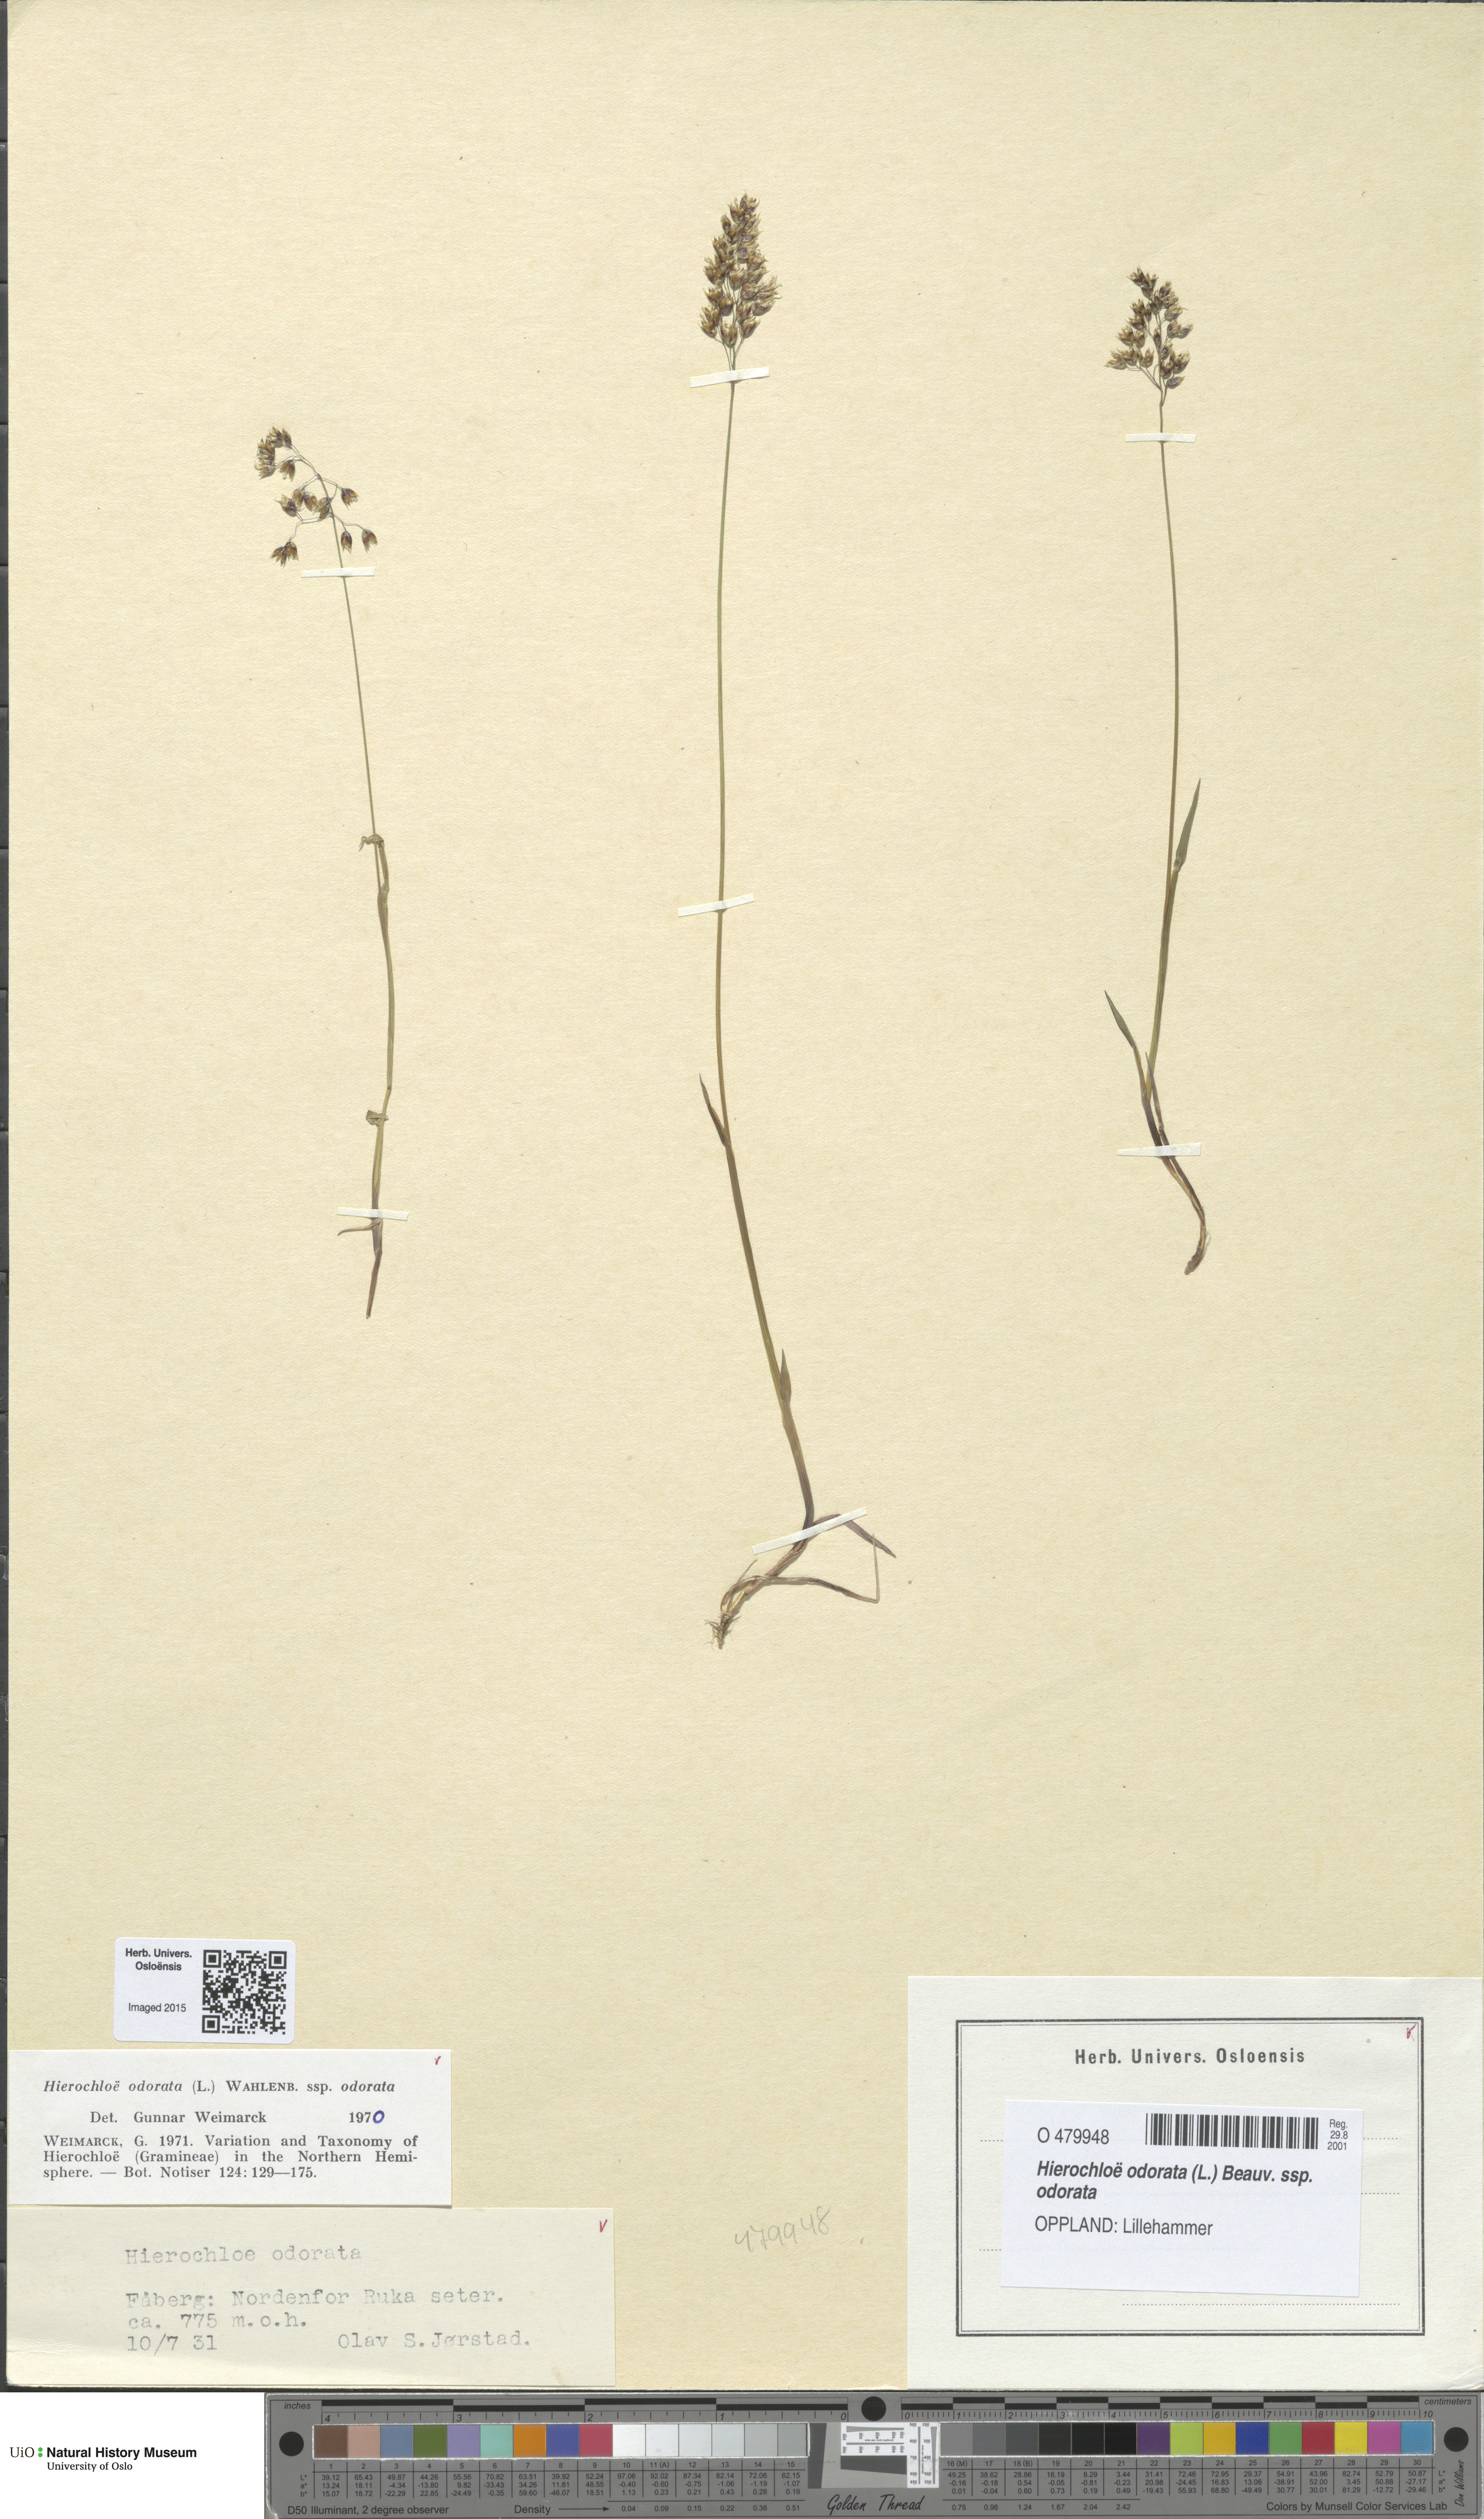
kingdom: Plantae
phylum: Tracheophyta
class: Liliopsida
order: Poales
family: Poaceae
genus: Anthoxanthum
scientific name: Anthoxanthum nitens
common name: Holy grass
